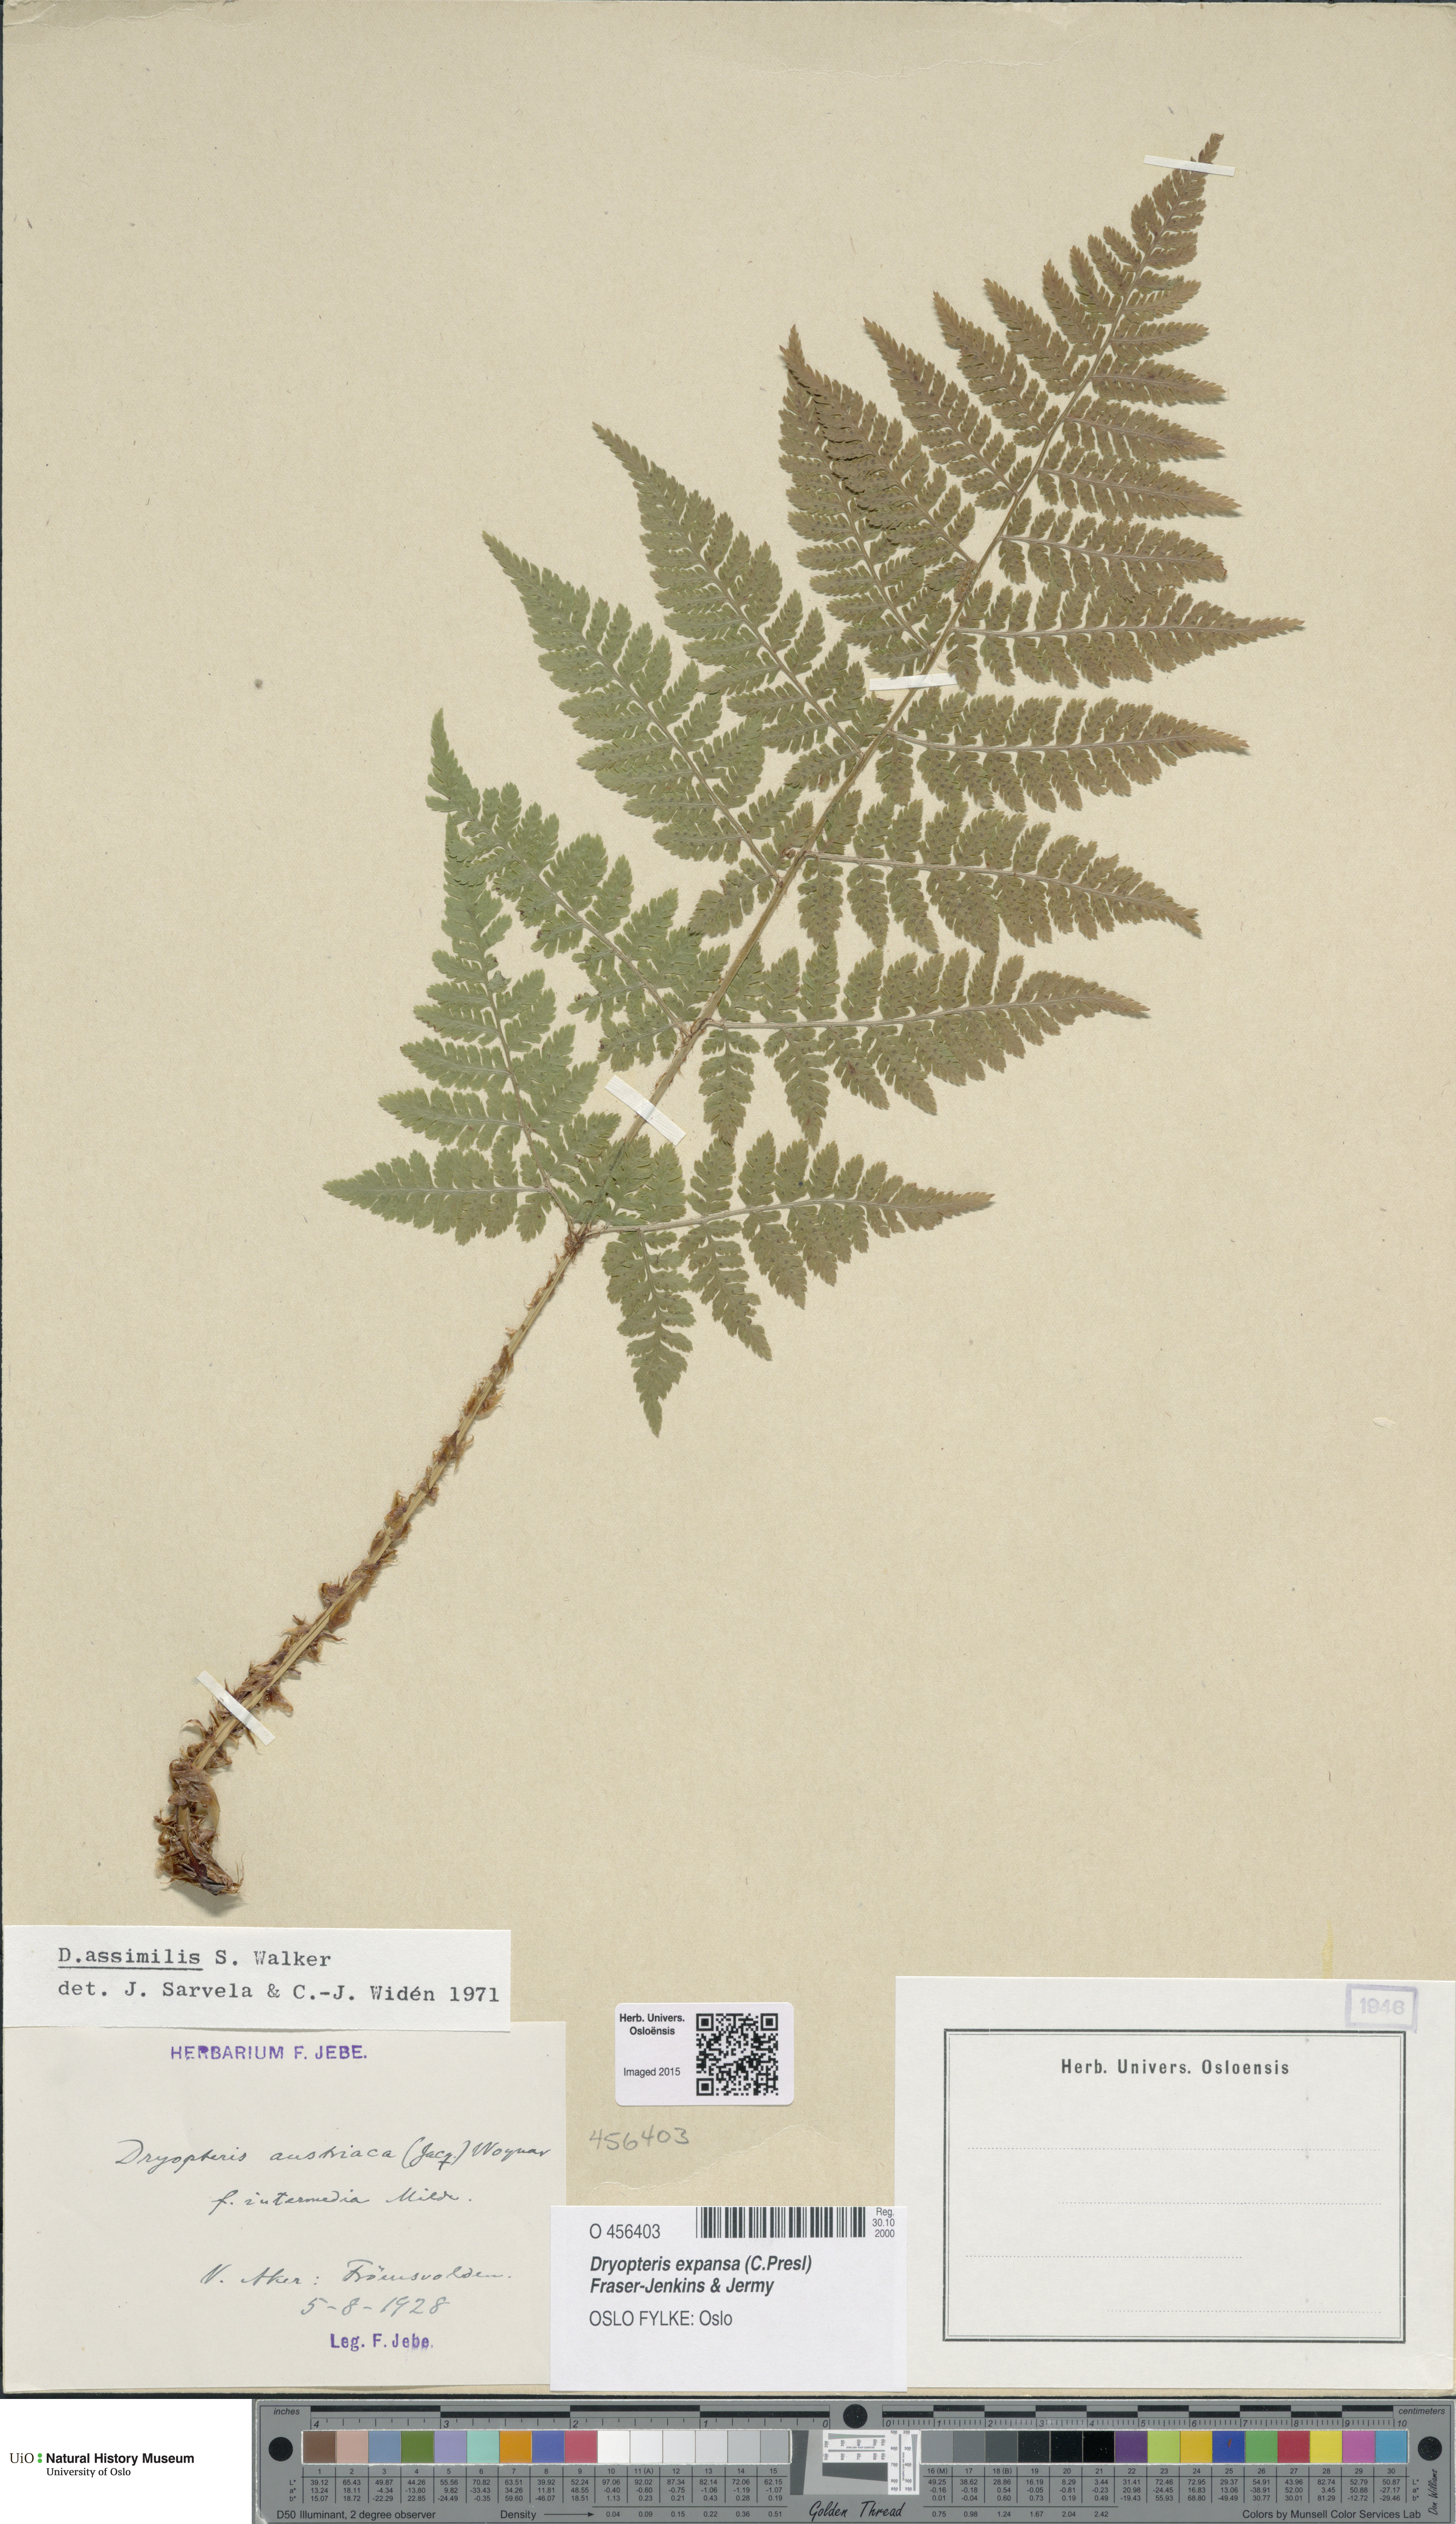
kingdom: Plantae
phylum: Tracheophyta
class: Polypodiopsida
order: Polypodiales
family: Dryopteridaceae
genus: Dryopteris
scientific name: Dryopteris expansa
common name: Northern buckler fern
